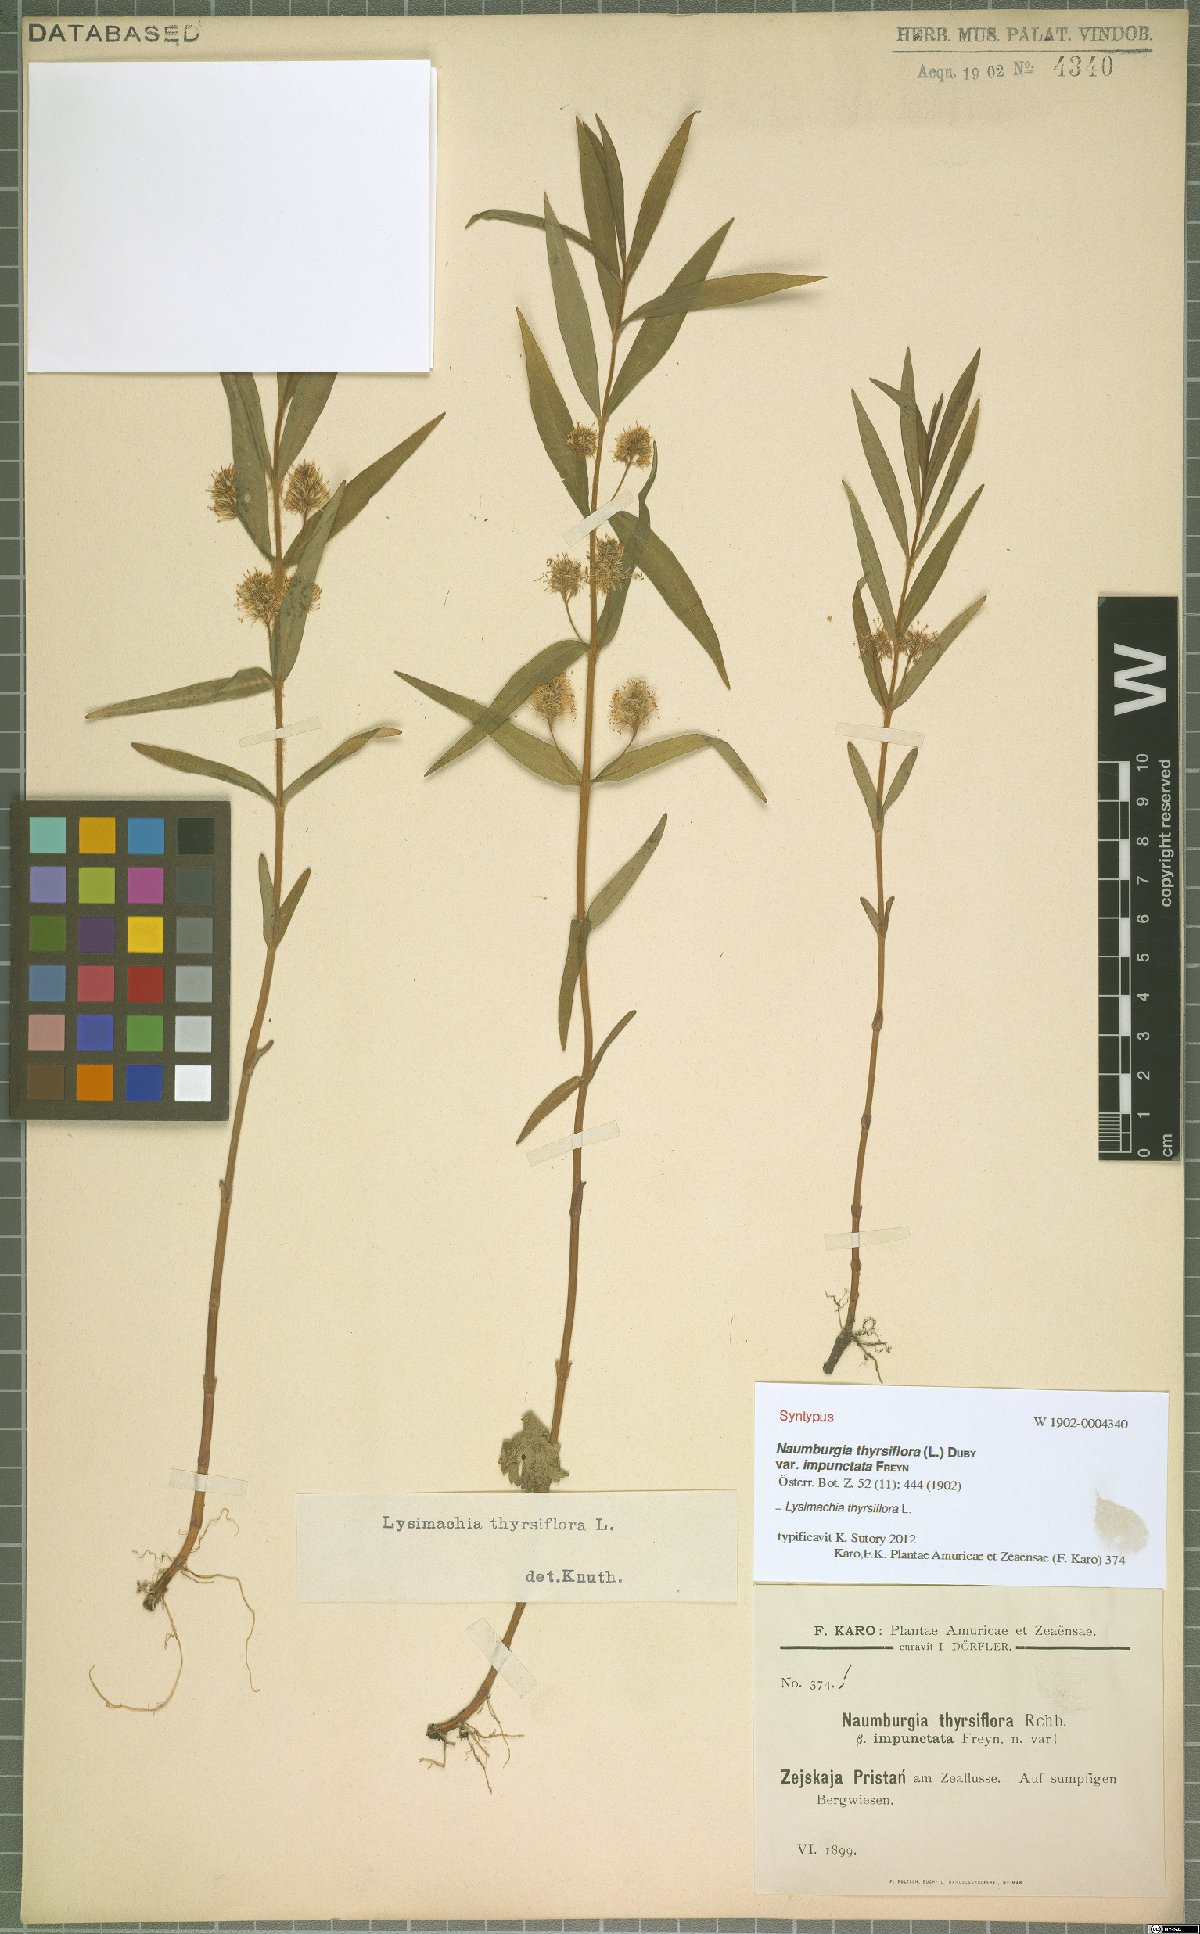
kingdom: Plantae
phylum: Tracheophyta
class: Magnoliopsida
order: Ericales
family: Primulaceae
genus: Lysimachia
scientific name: Lysimachia thyrsiflora
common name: Tufted loosestrife
